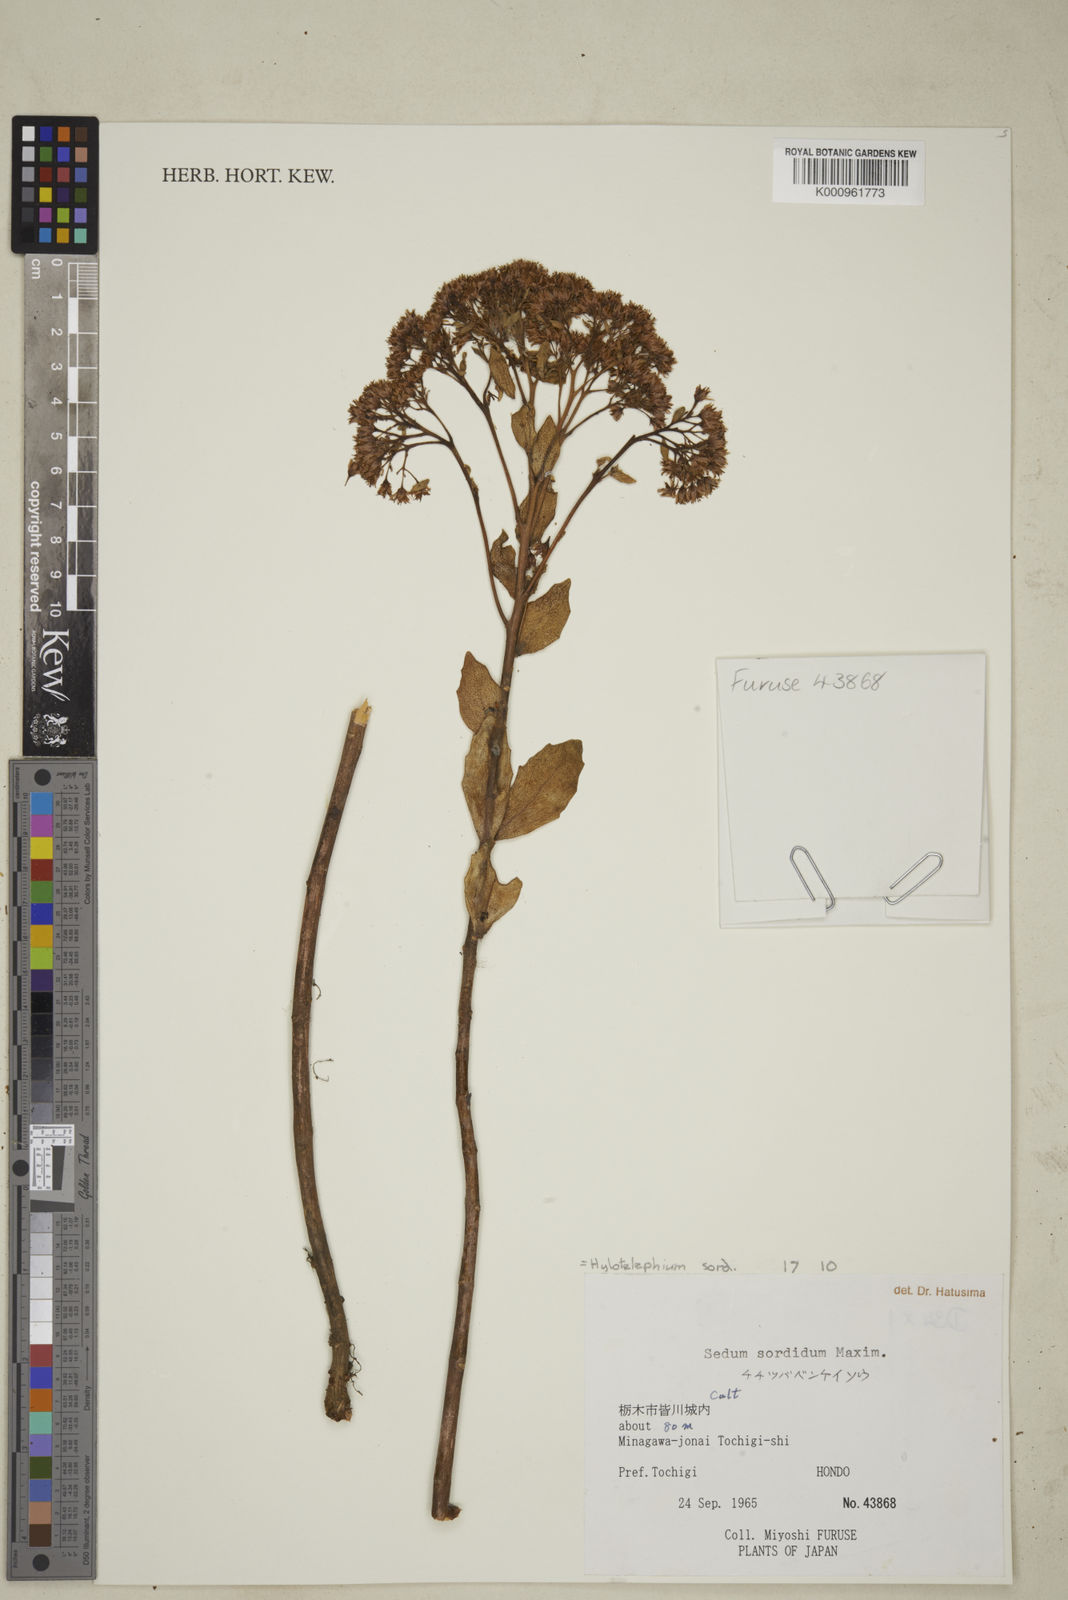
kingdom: Plantae
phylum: Tracheophyta
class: Magnoliopsida
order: Saxifragales
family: Crassulaceae
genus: Hylotelephium
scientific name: Hylotelephium sordidum
